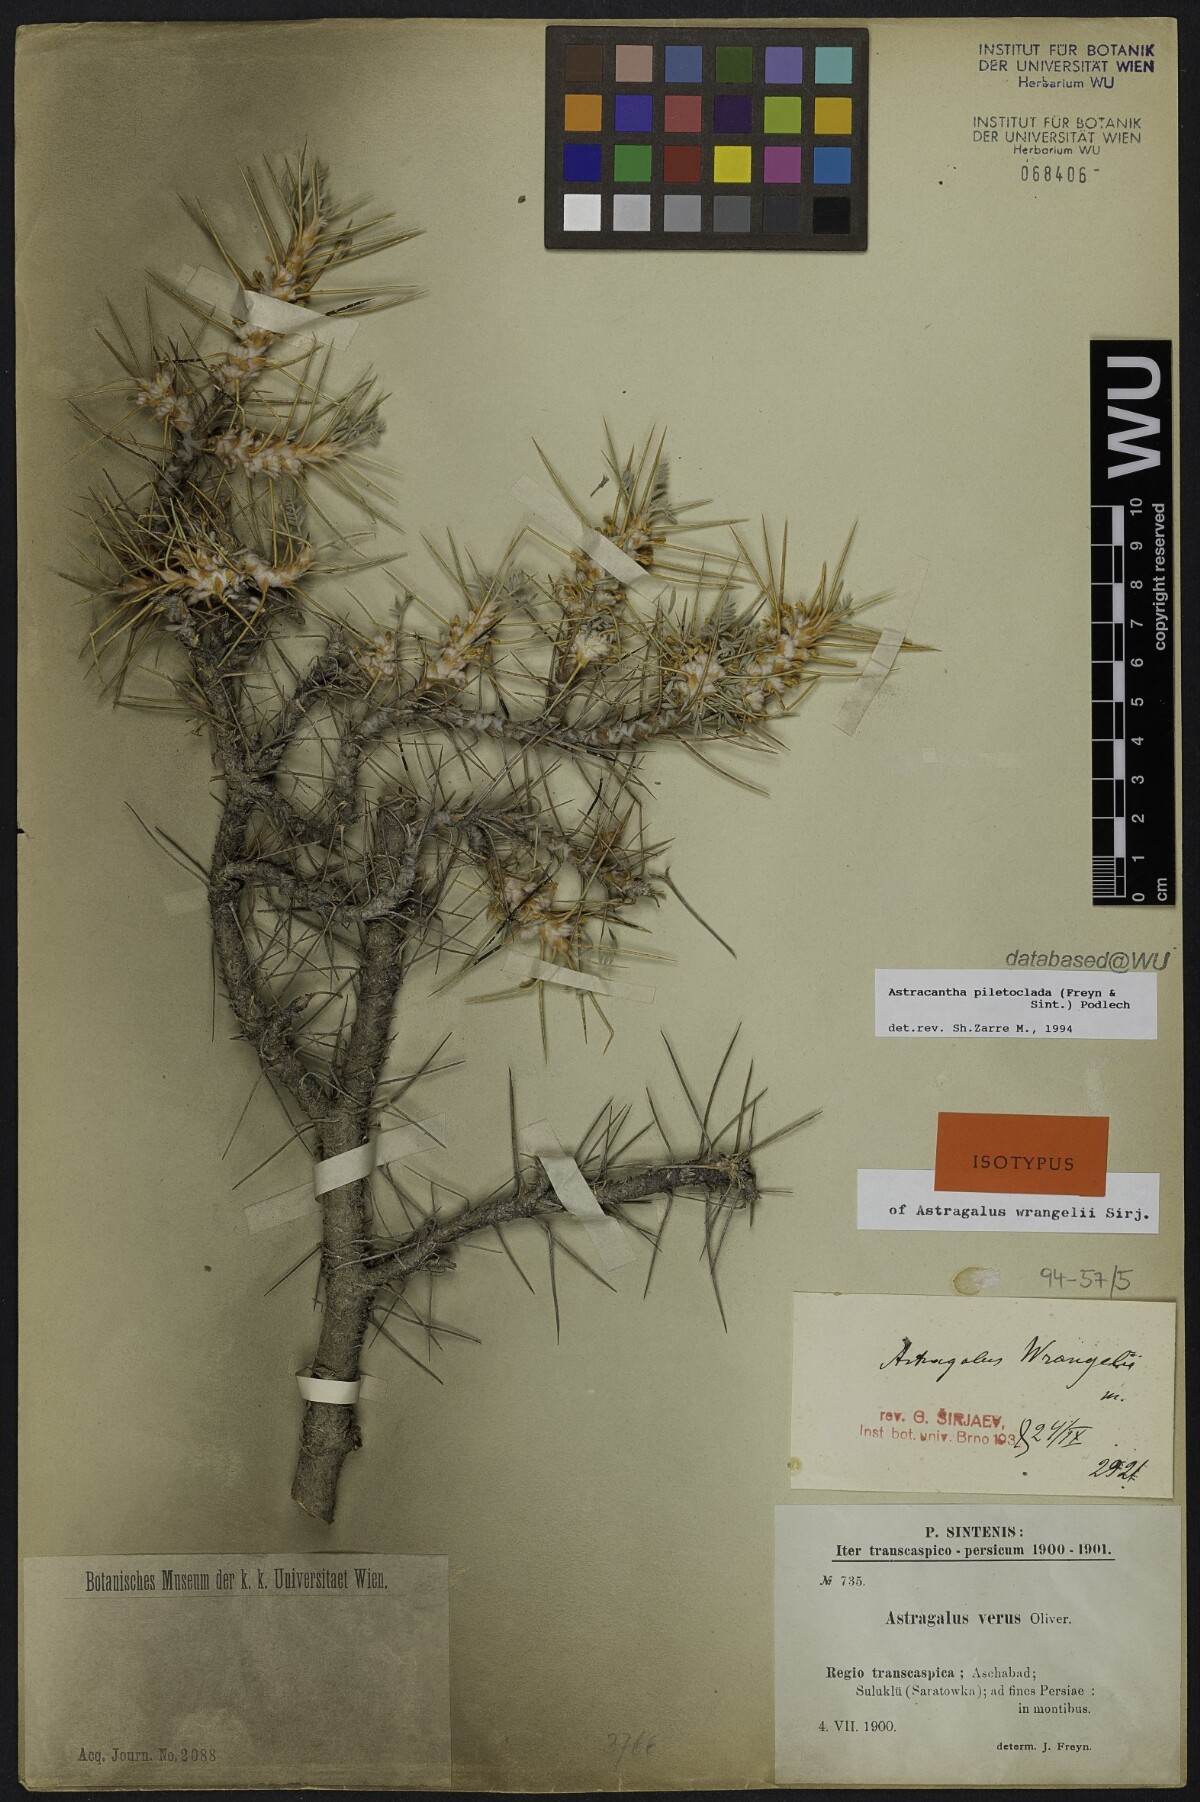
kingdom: Plantae
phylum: Tracheophyta
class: Magnoliopsida
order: Fabales
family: Fabaceae
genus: Astragalus
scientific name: Astragalus verus
